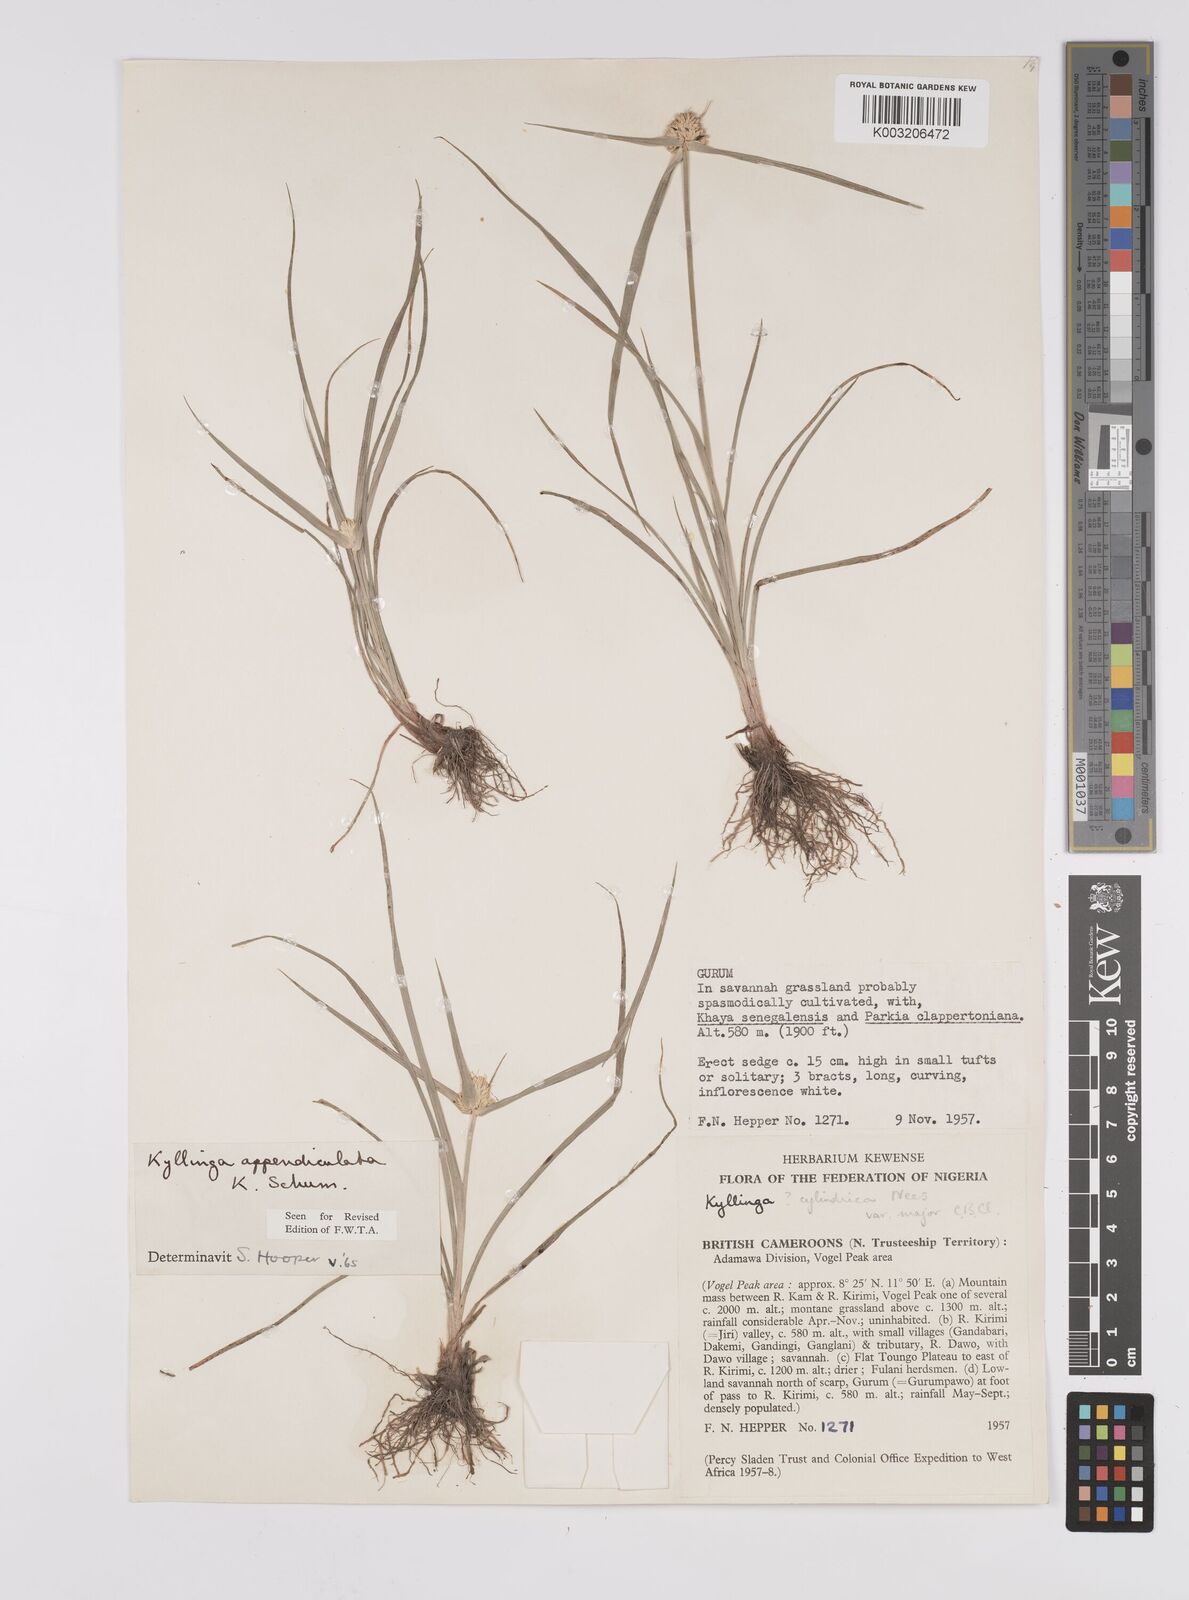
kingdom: Plantae
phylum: Tracheophyta
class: Liliopsida
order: Poales
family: Cyperaceae
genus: Cyperus
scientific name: Cyperus sesquiflorus
